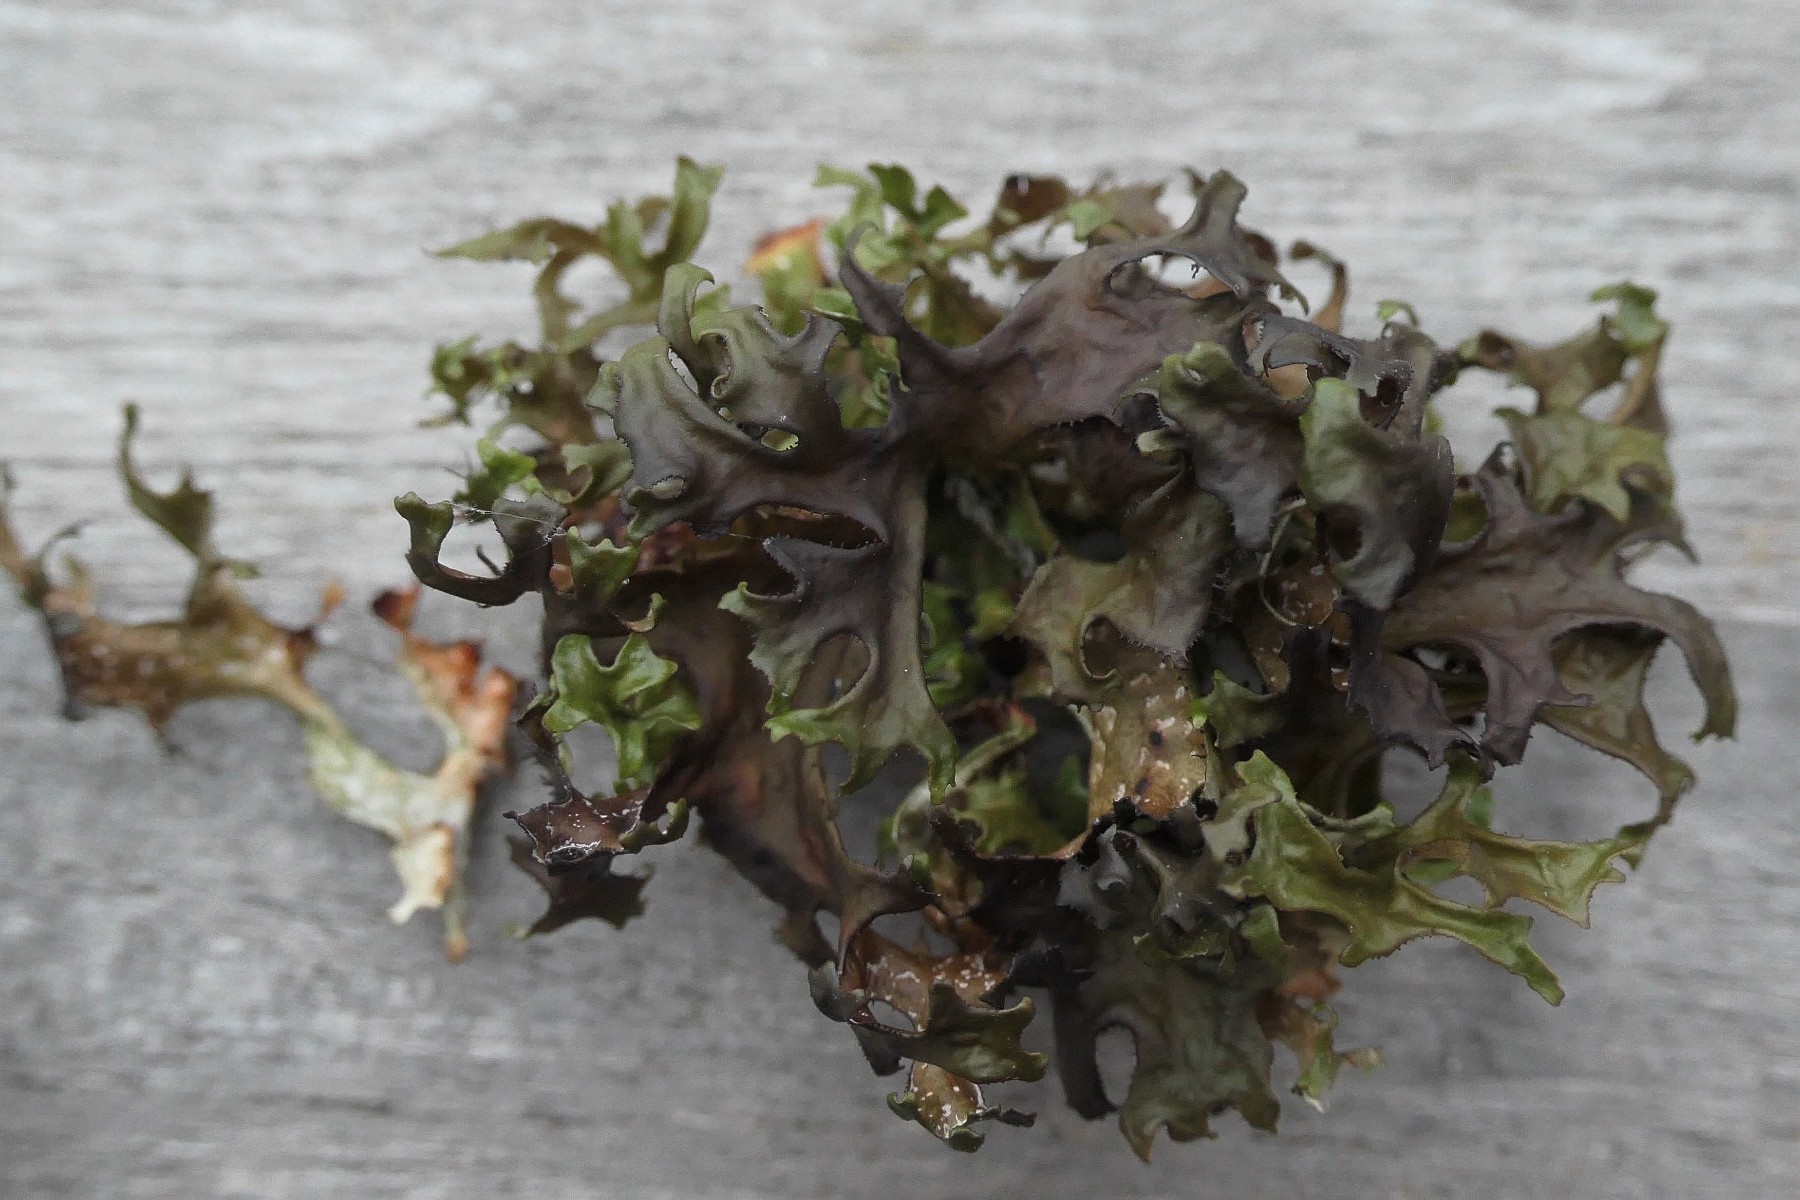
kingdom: Fungi
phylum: Ascomycota
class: Lecanoromycetes
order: Lecanorales
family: Parmeliaceae
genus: Cetraria
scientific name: Cetraria islandica
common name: islandsk kruslav
